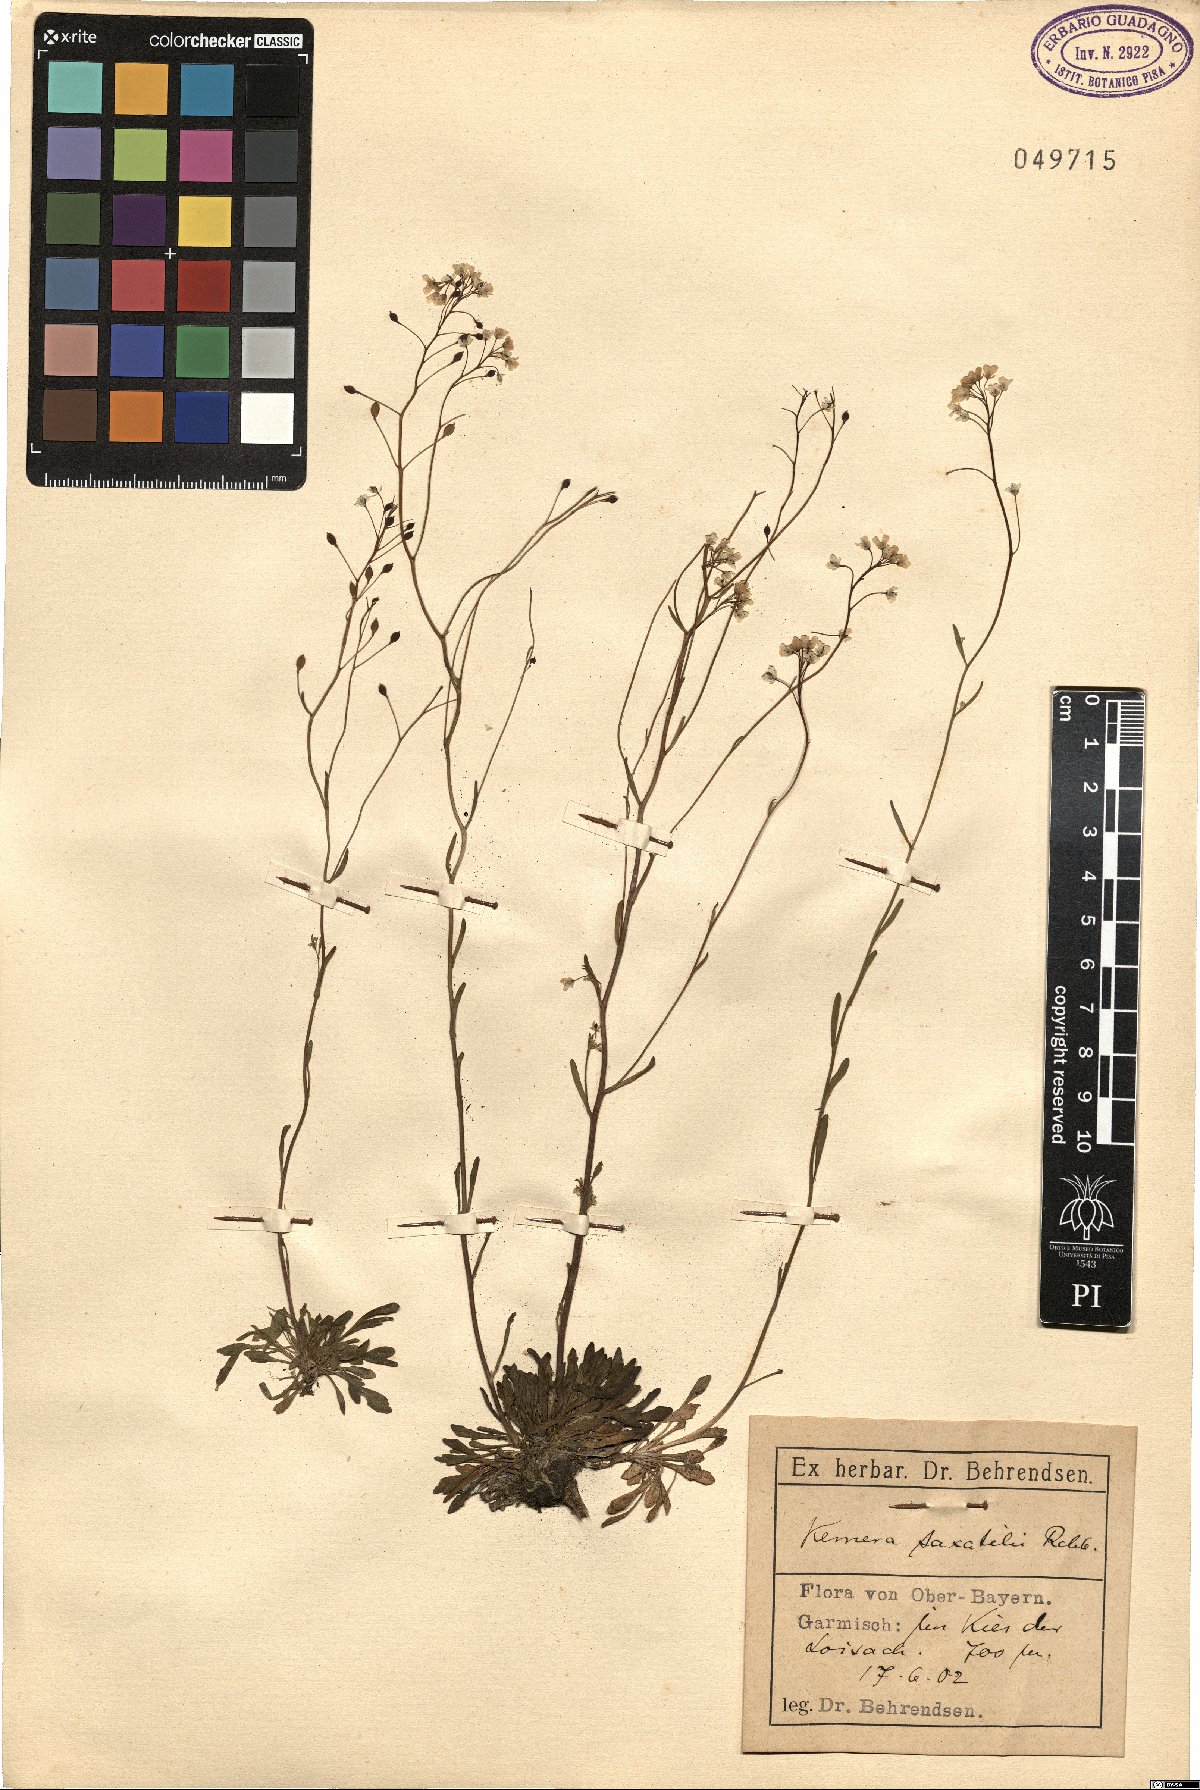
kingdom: Plantae
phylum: Tracheophyta
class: Magnoliopsida
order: Brassicales
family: Brassicaceae
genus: Kernera
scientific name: Kernera saxatilis
